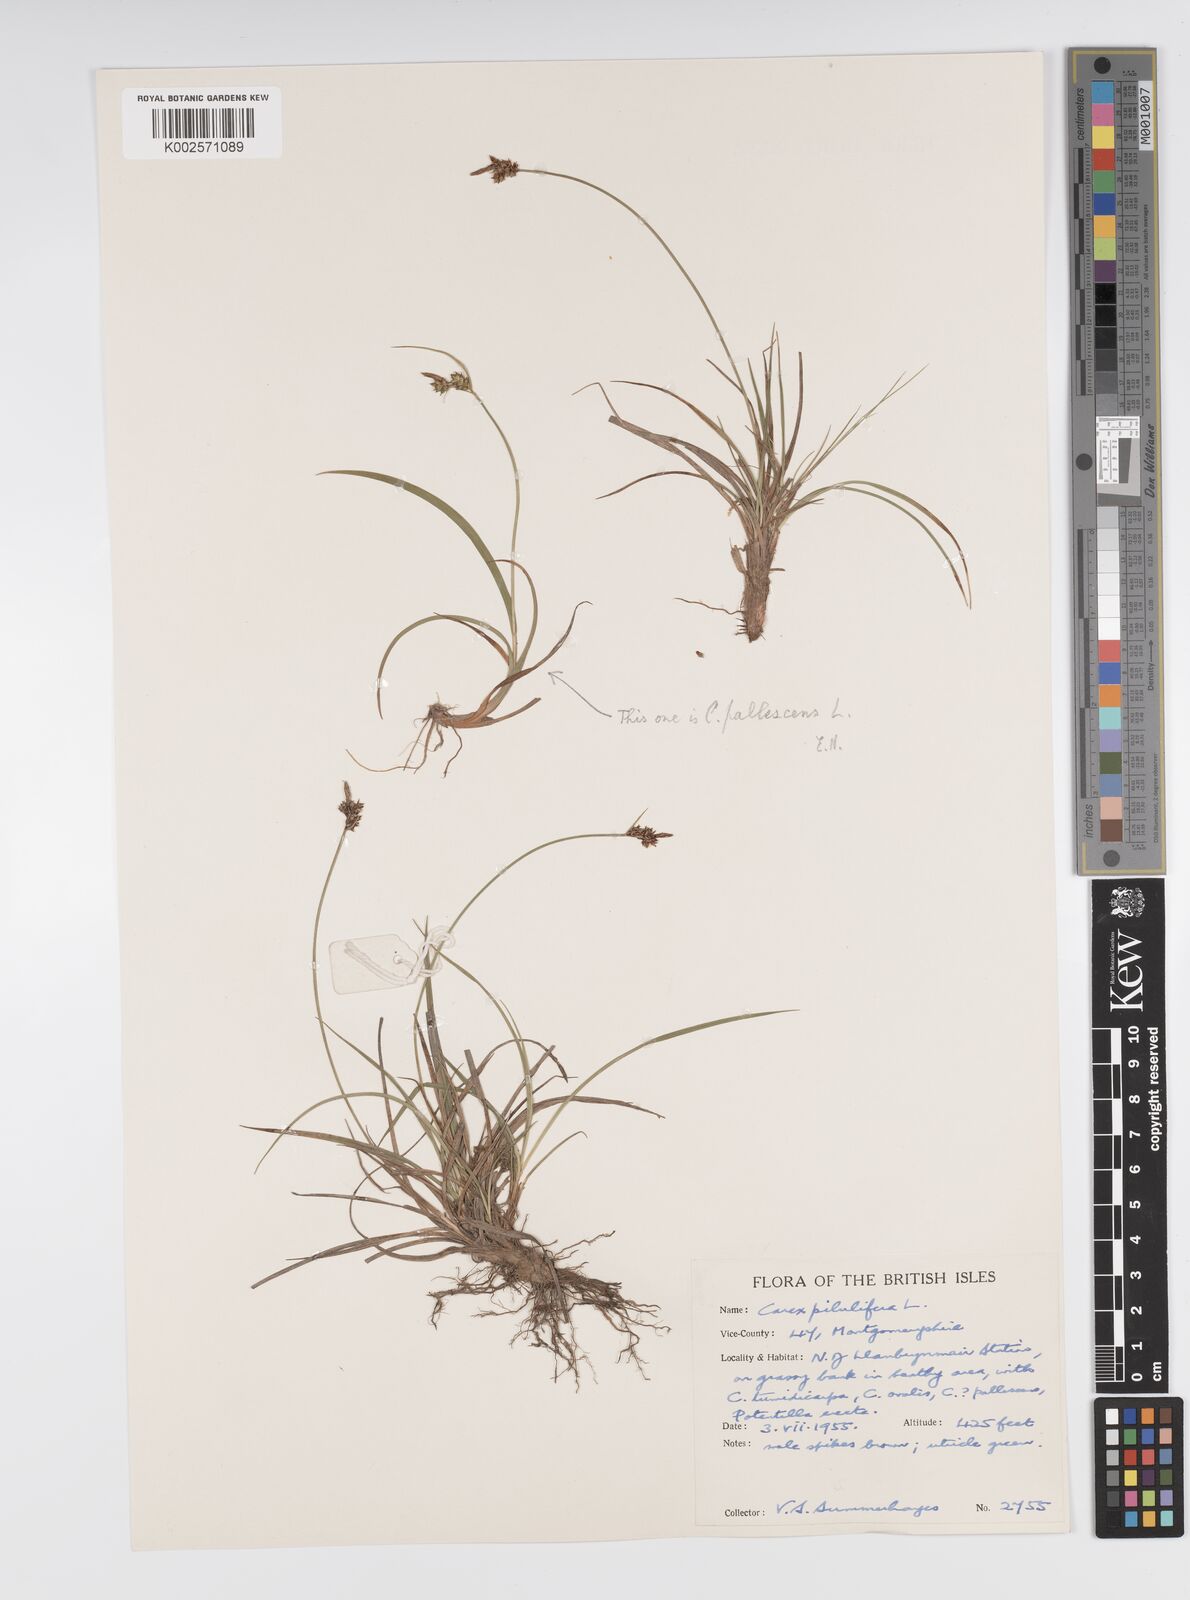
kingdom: Plantae
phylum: Tracheophyta
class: Liliopsida
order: Poales
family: Cyperaceae
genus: Carex
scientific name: Carex pilulifera
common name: Pill sedge
